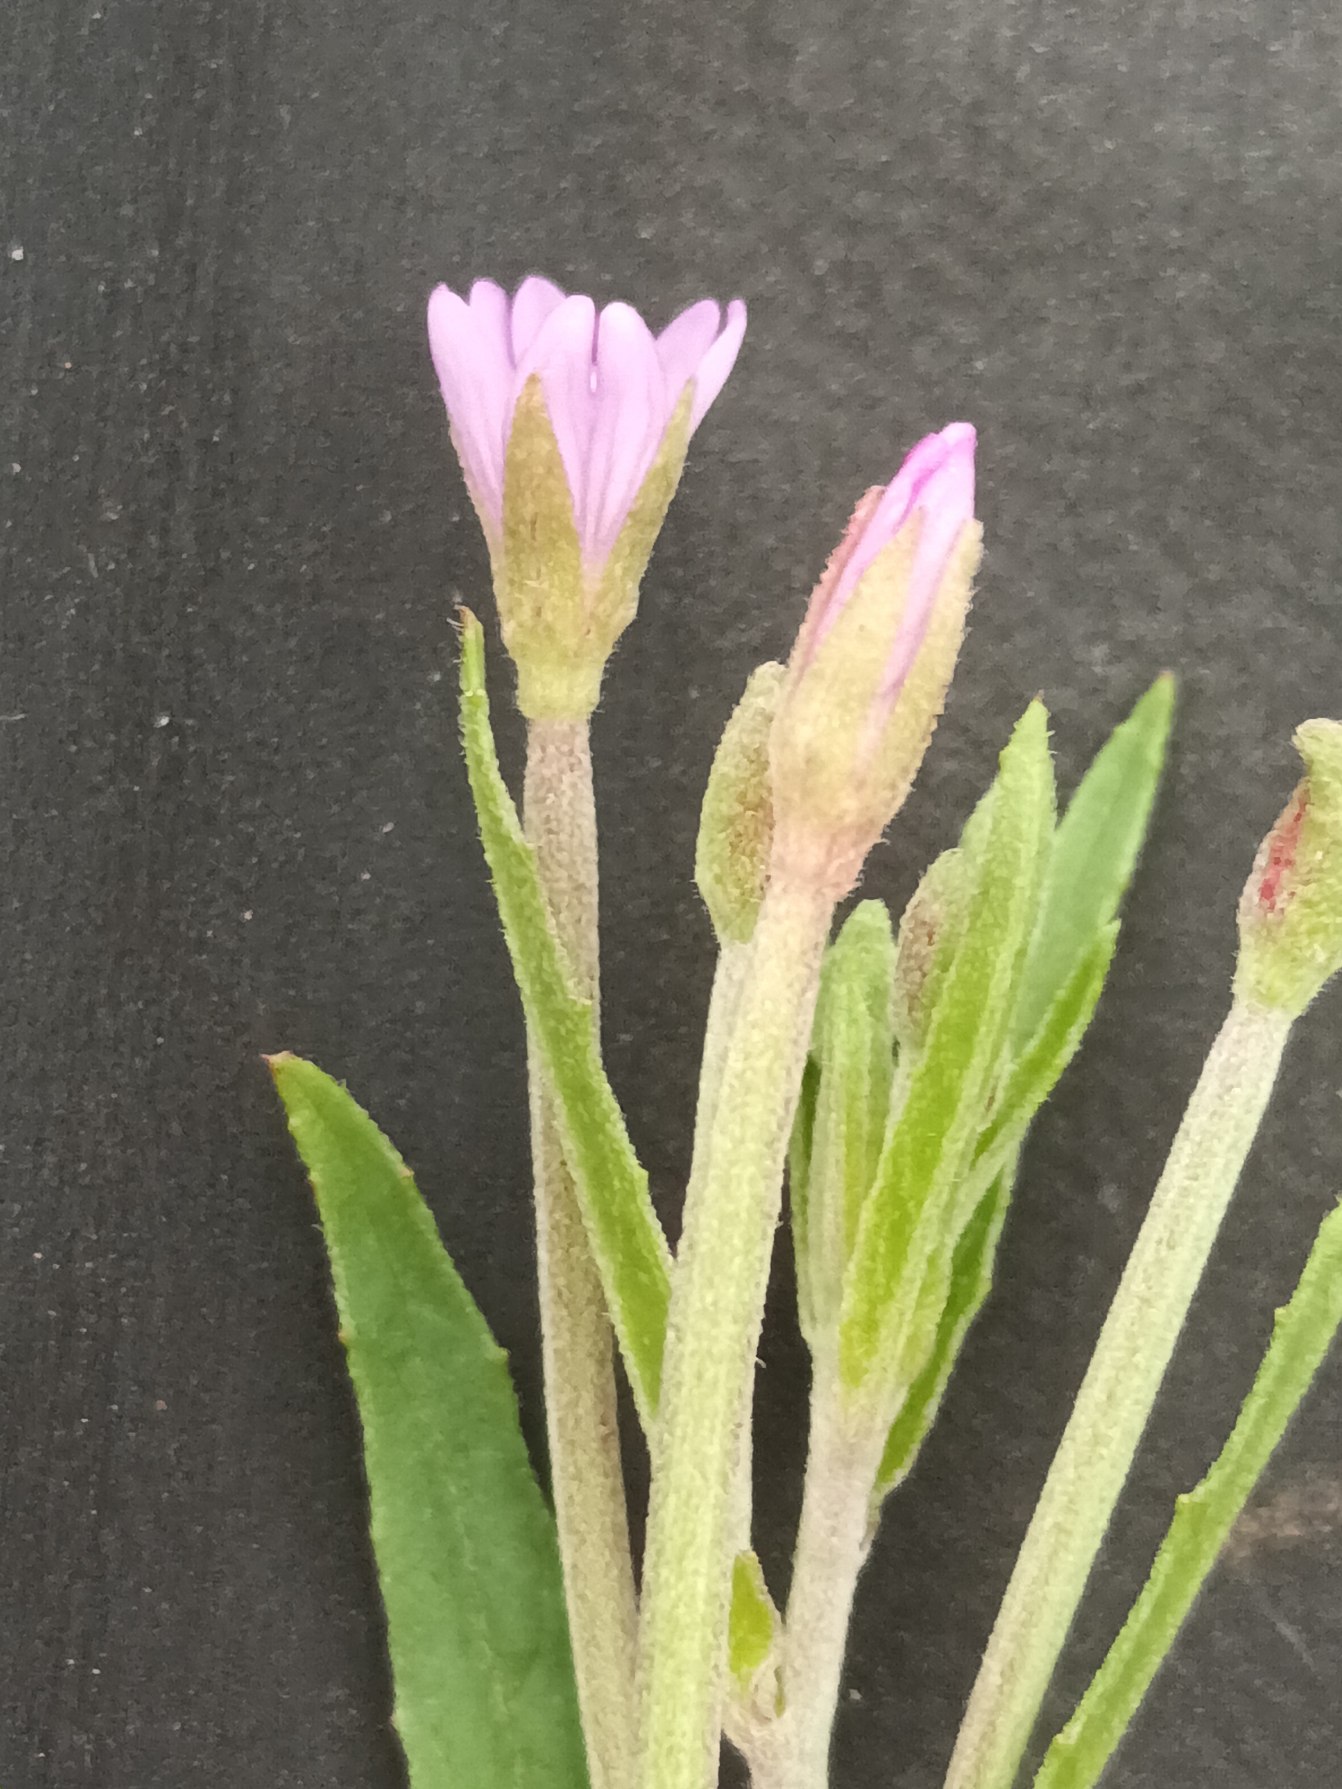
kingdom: Plantae
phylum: Tracheophyta
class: Magnoliopsida
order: Myrtales
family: Onagraceae
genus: Epilobium
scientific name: Epilobium obscurum
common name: Ris-dueurt
